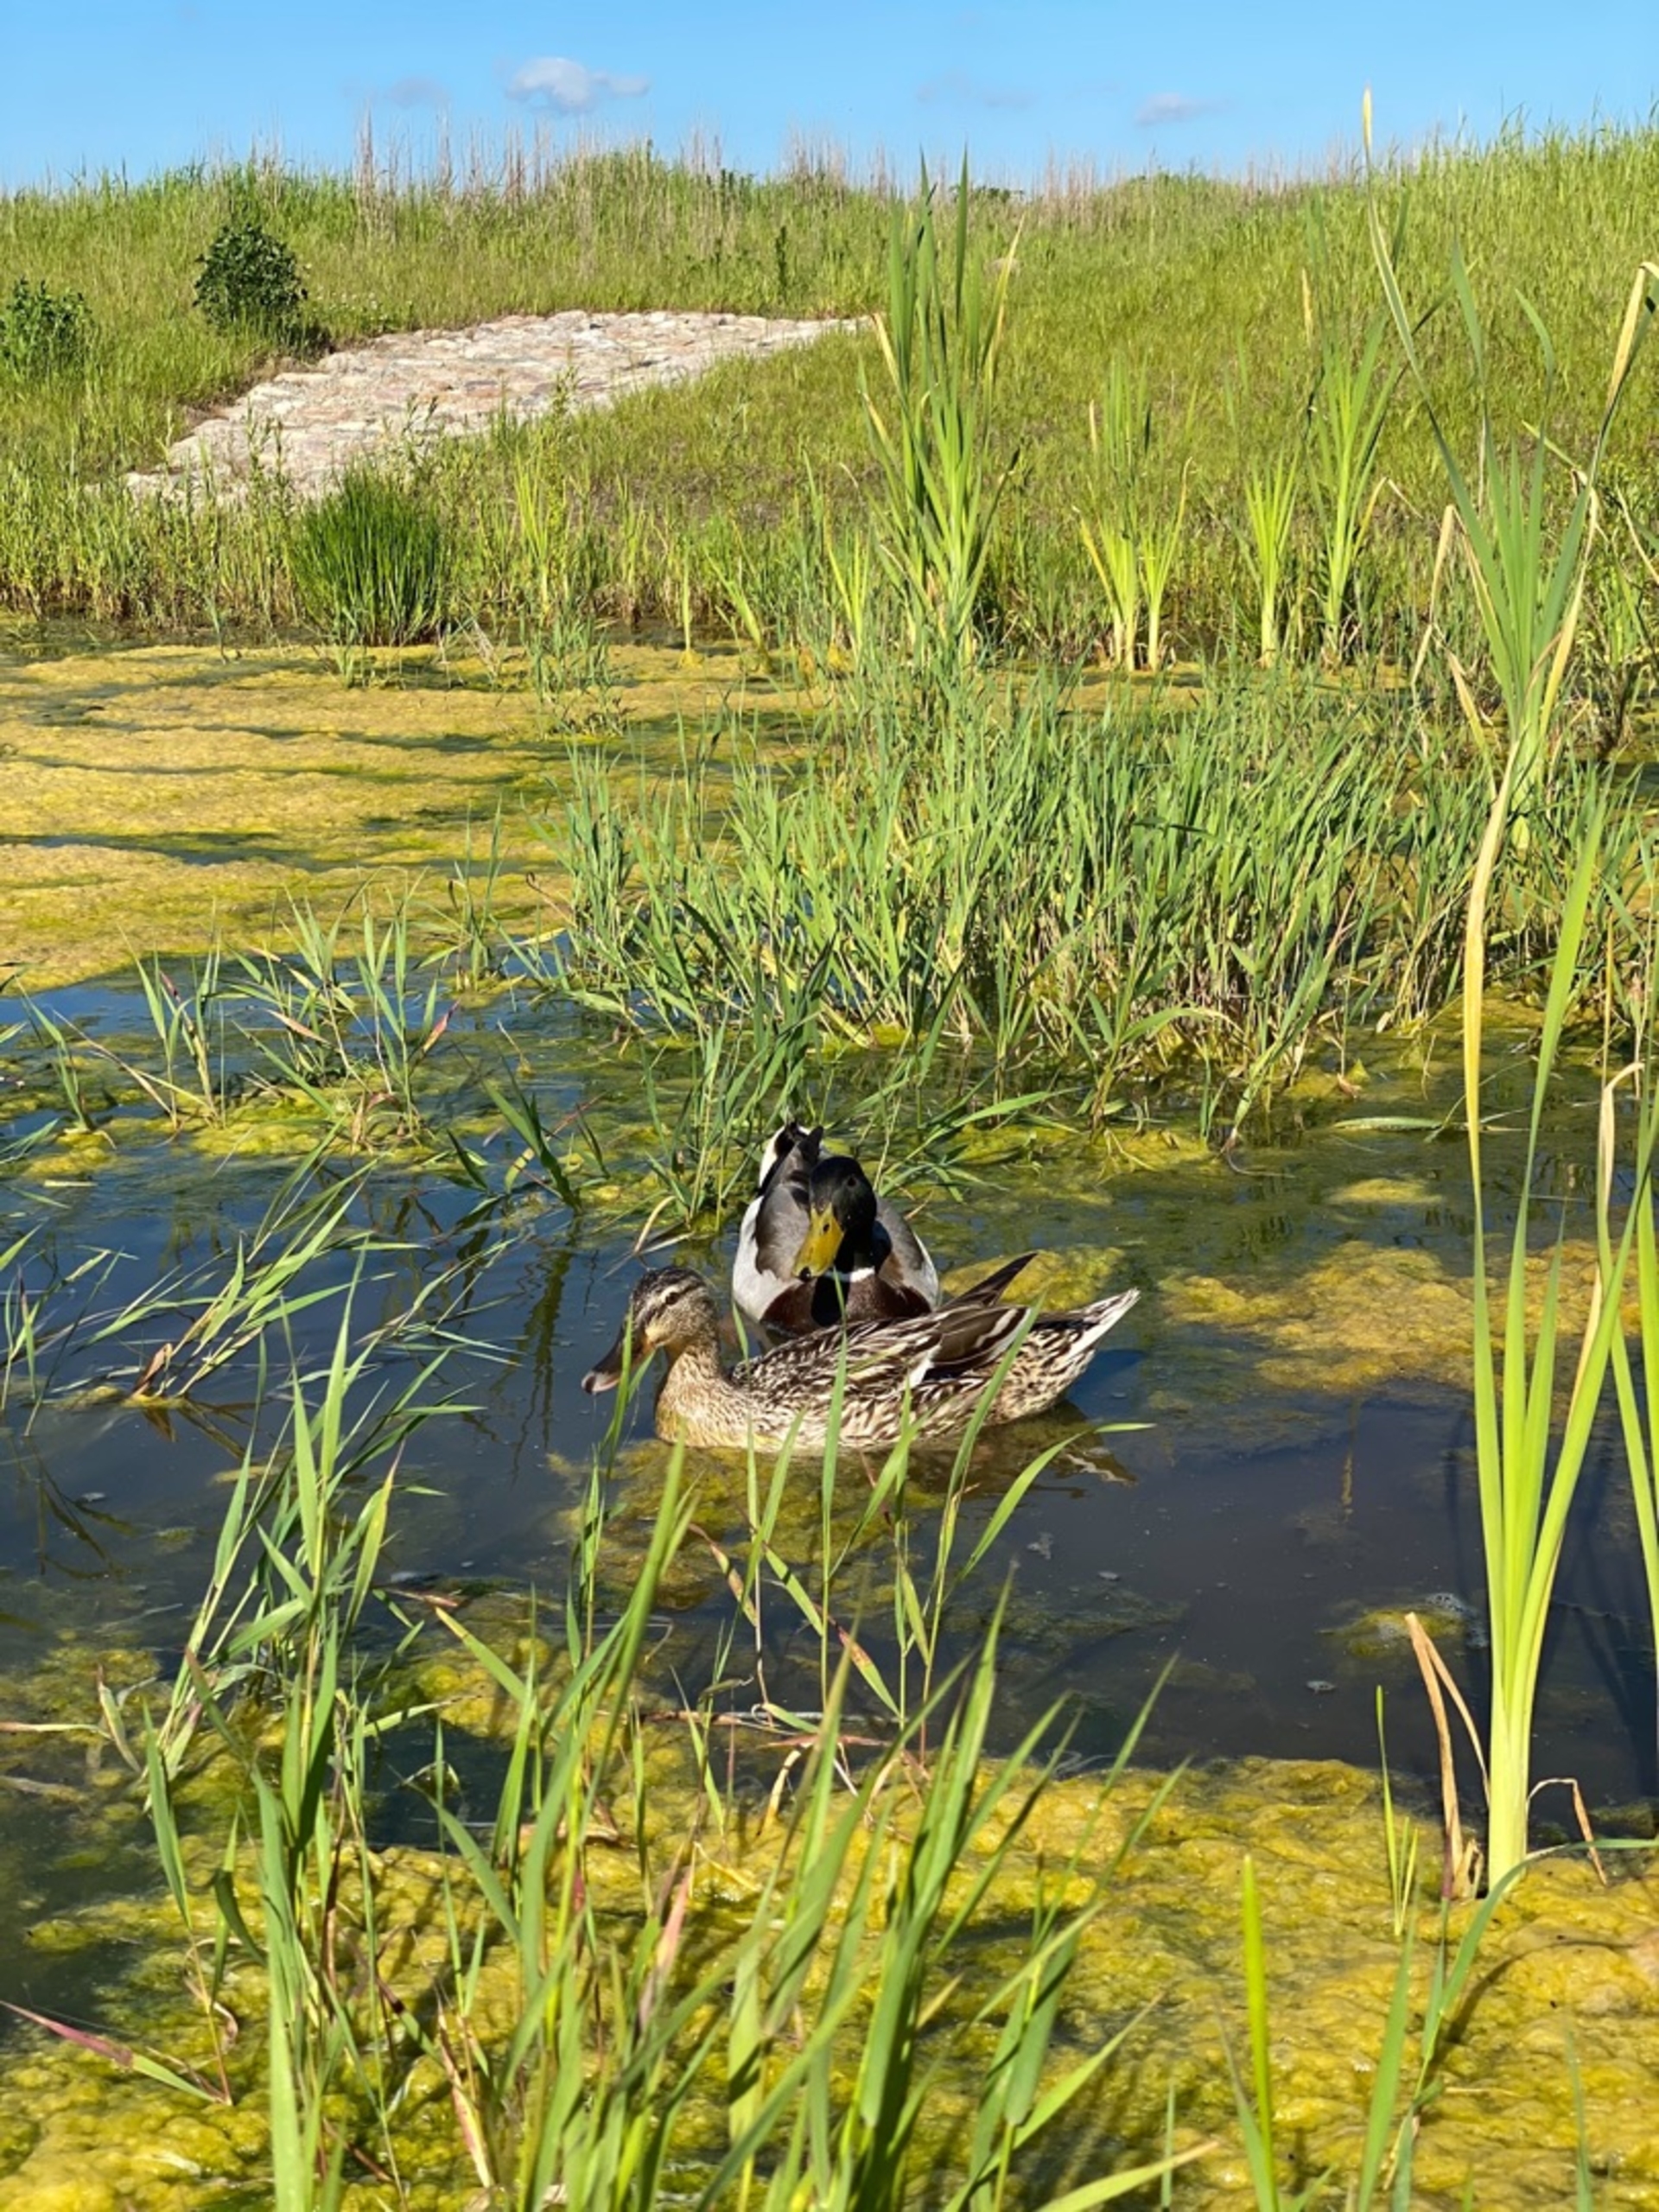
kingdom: Animalia
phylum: Chordata
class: Aves
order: Anseriformes
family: Anatidae
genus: Anas
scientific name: Anas platyrhynchos
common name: Gråand
